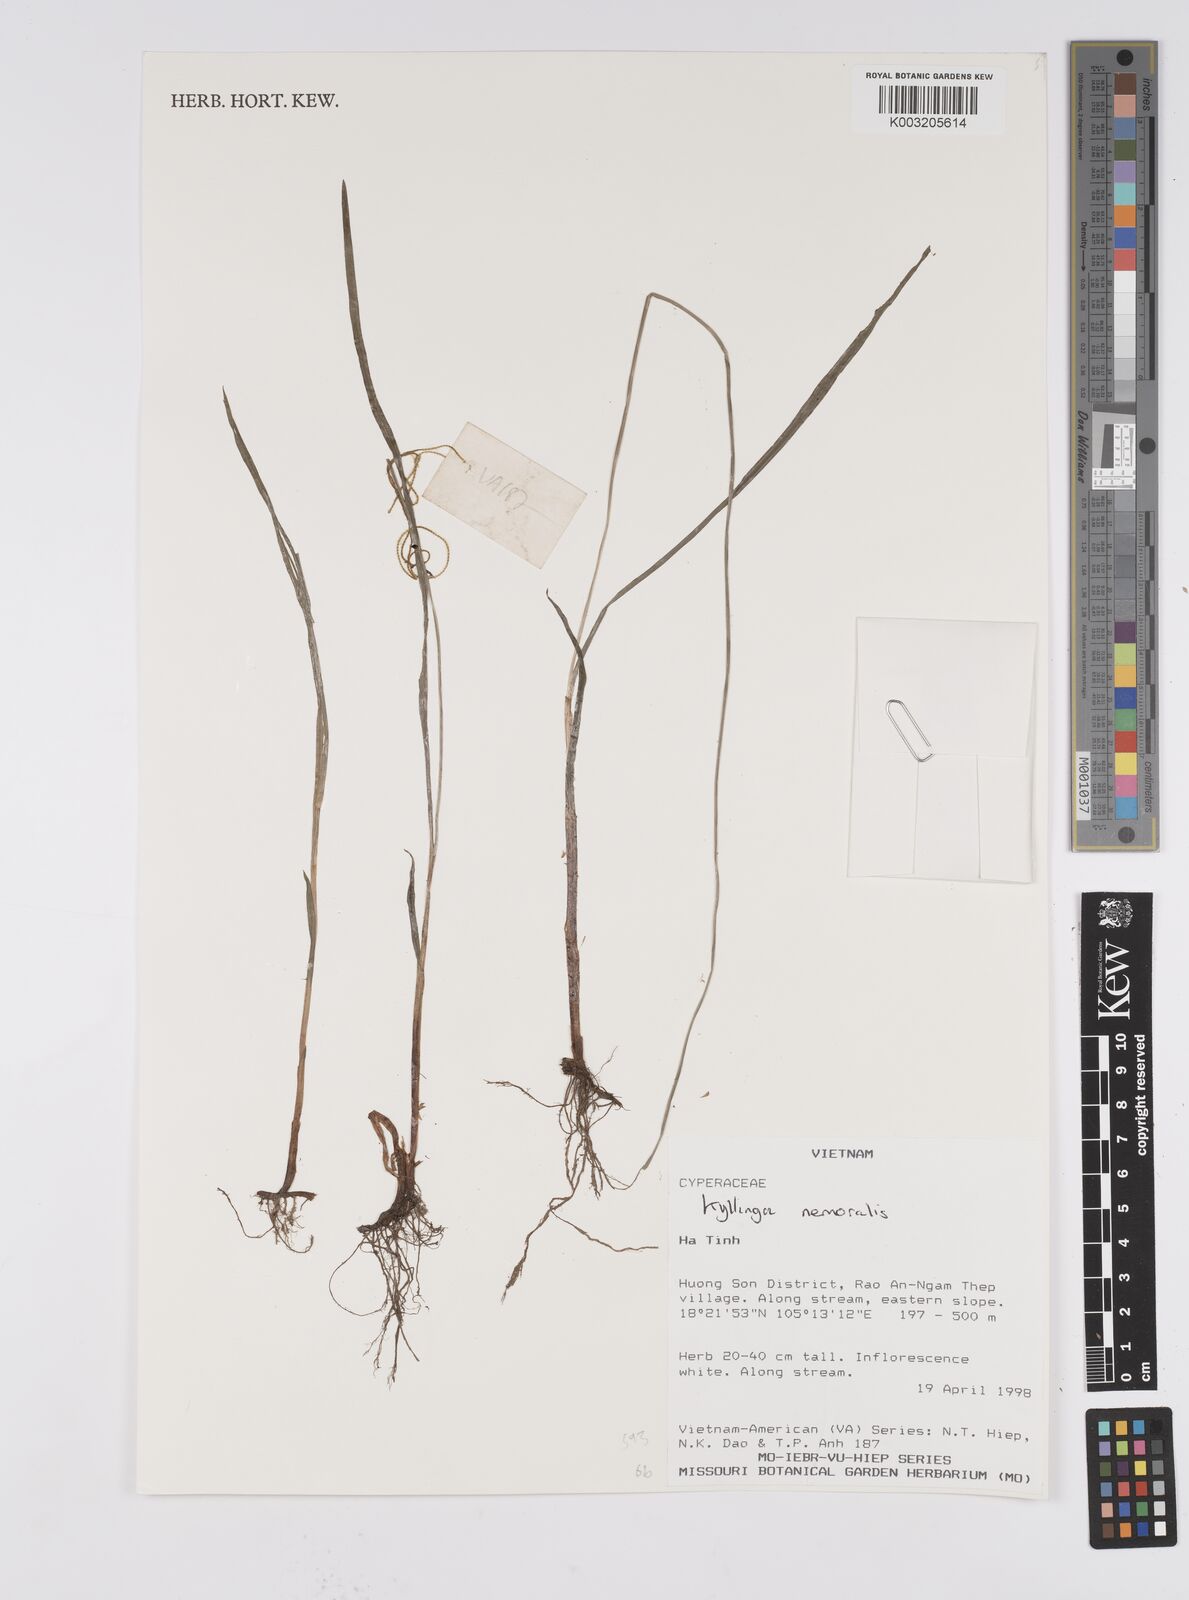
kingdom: Plantae
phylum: Tracheophyta
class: Liliopsida
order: Poales
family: Cyperaceae
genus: Cyperus
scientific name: Cyperus
